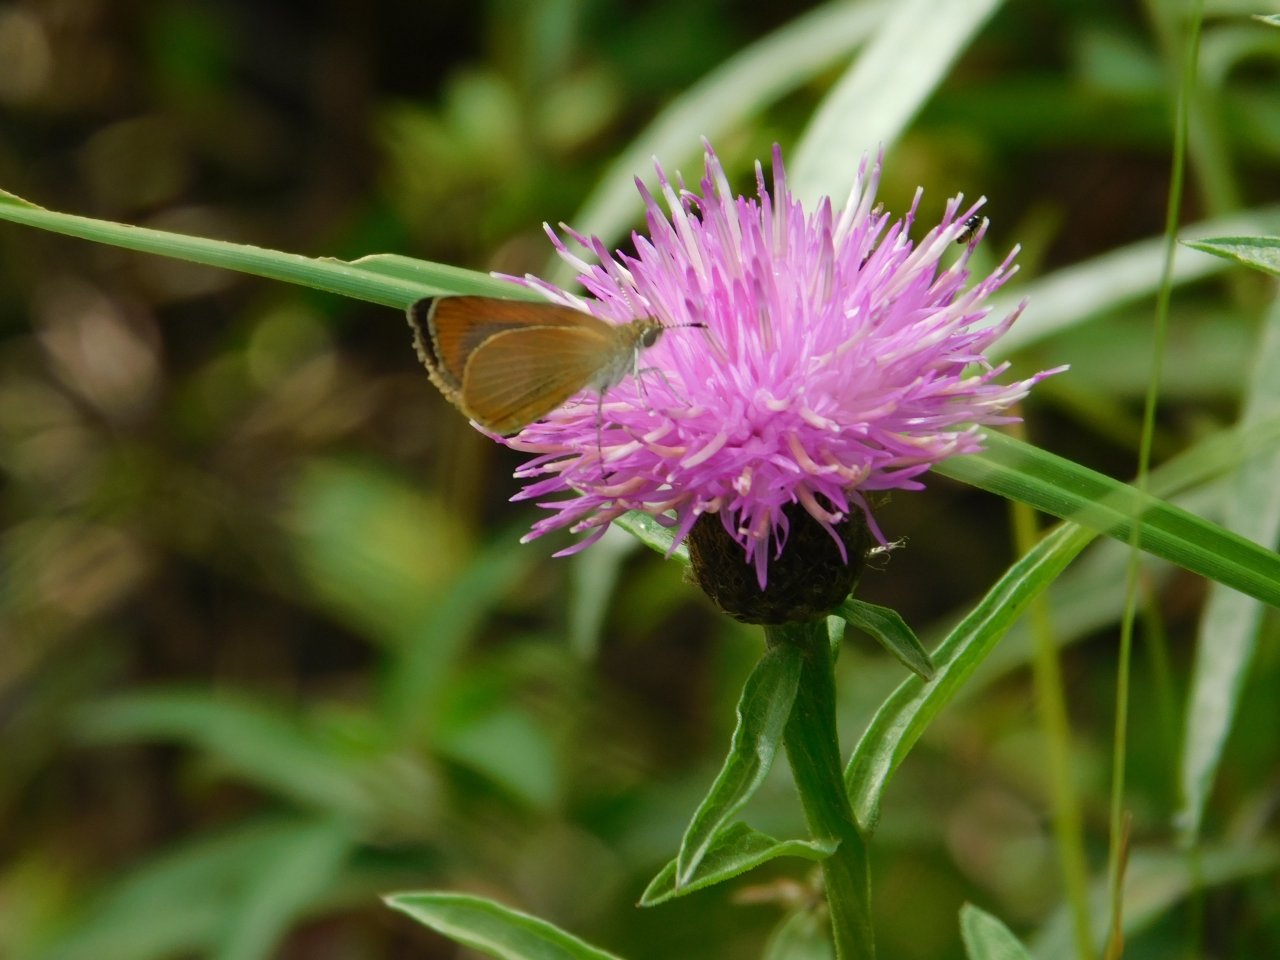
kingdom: Animalia
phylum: Arthropoda
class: Insecta
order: Lepidoptera
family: Hesperiidae
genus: Ancyloxypha
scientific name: Ancyloxypha numitor
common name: Least Skipper
